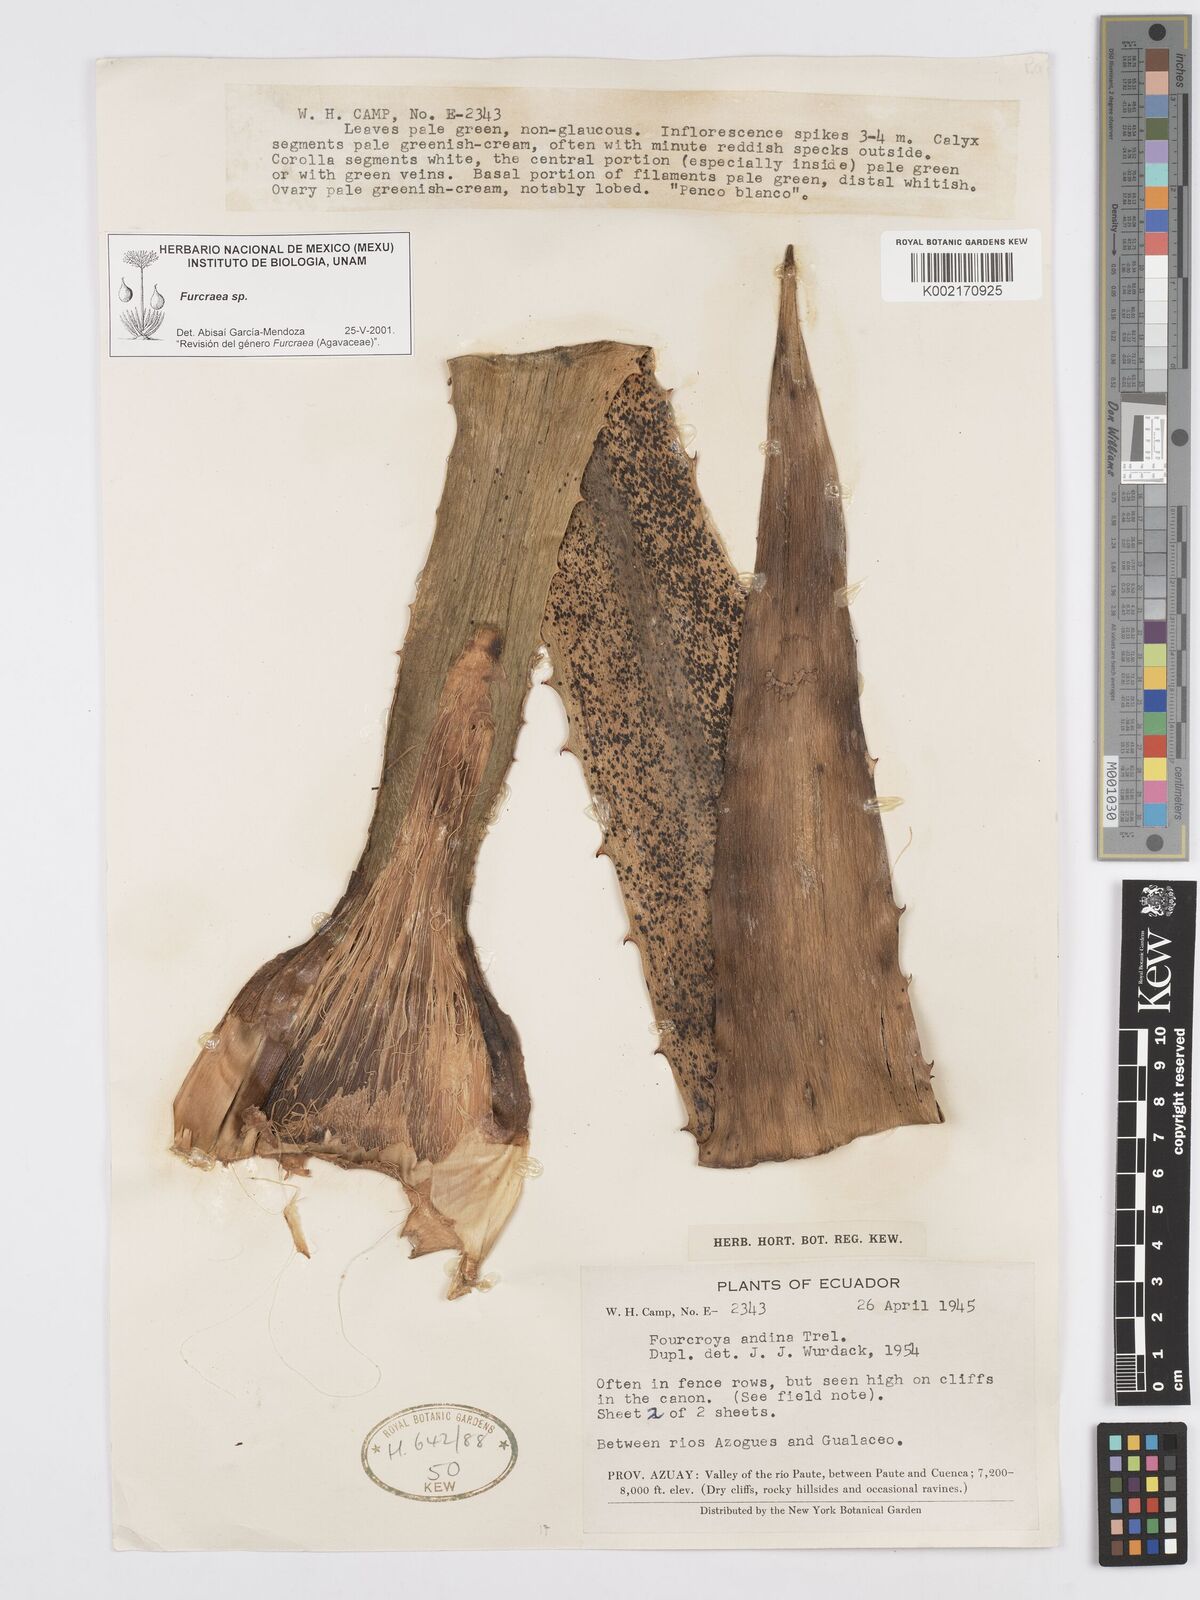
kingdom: Plantae
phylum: Tracheophyta
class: Liliopsida
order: Asparagales
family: Asparagaceae
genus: Furcraea
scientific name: Furcraea
